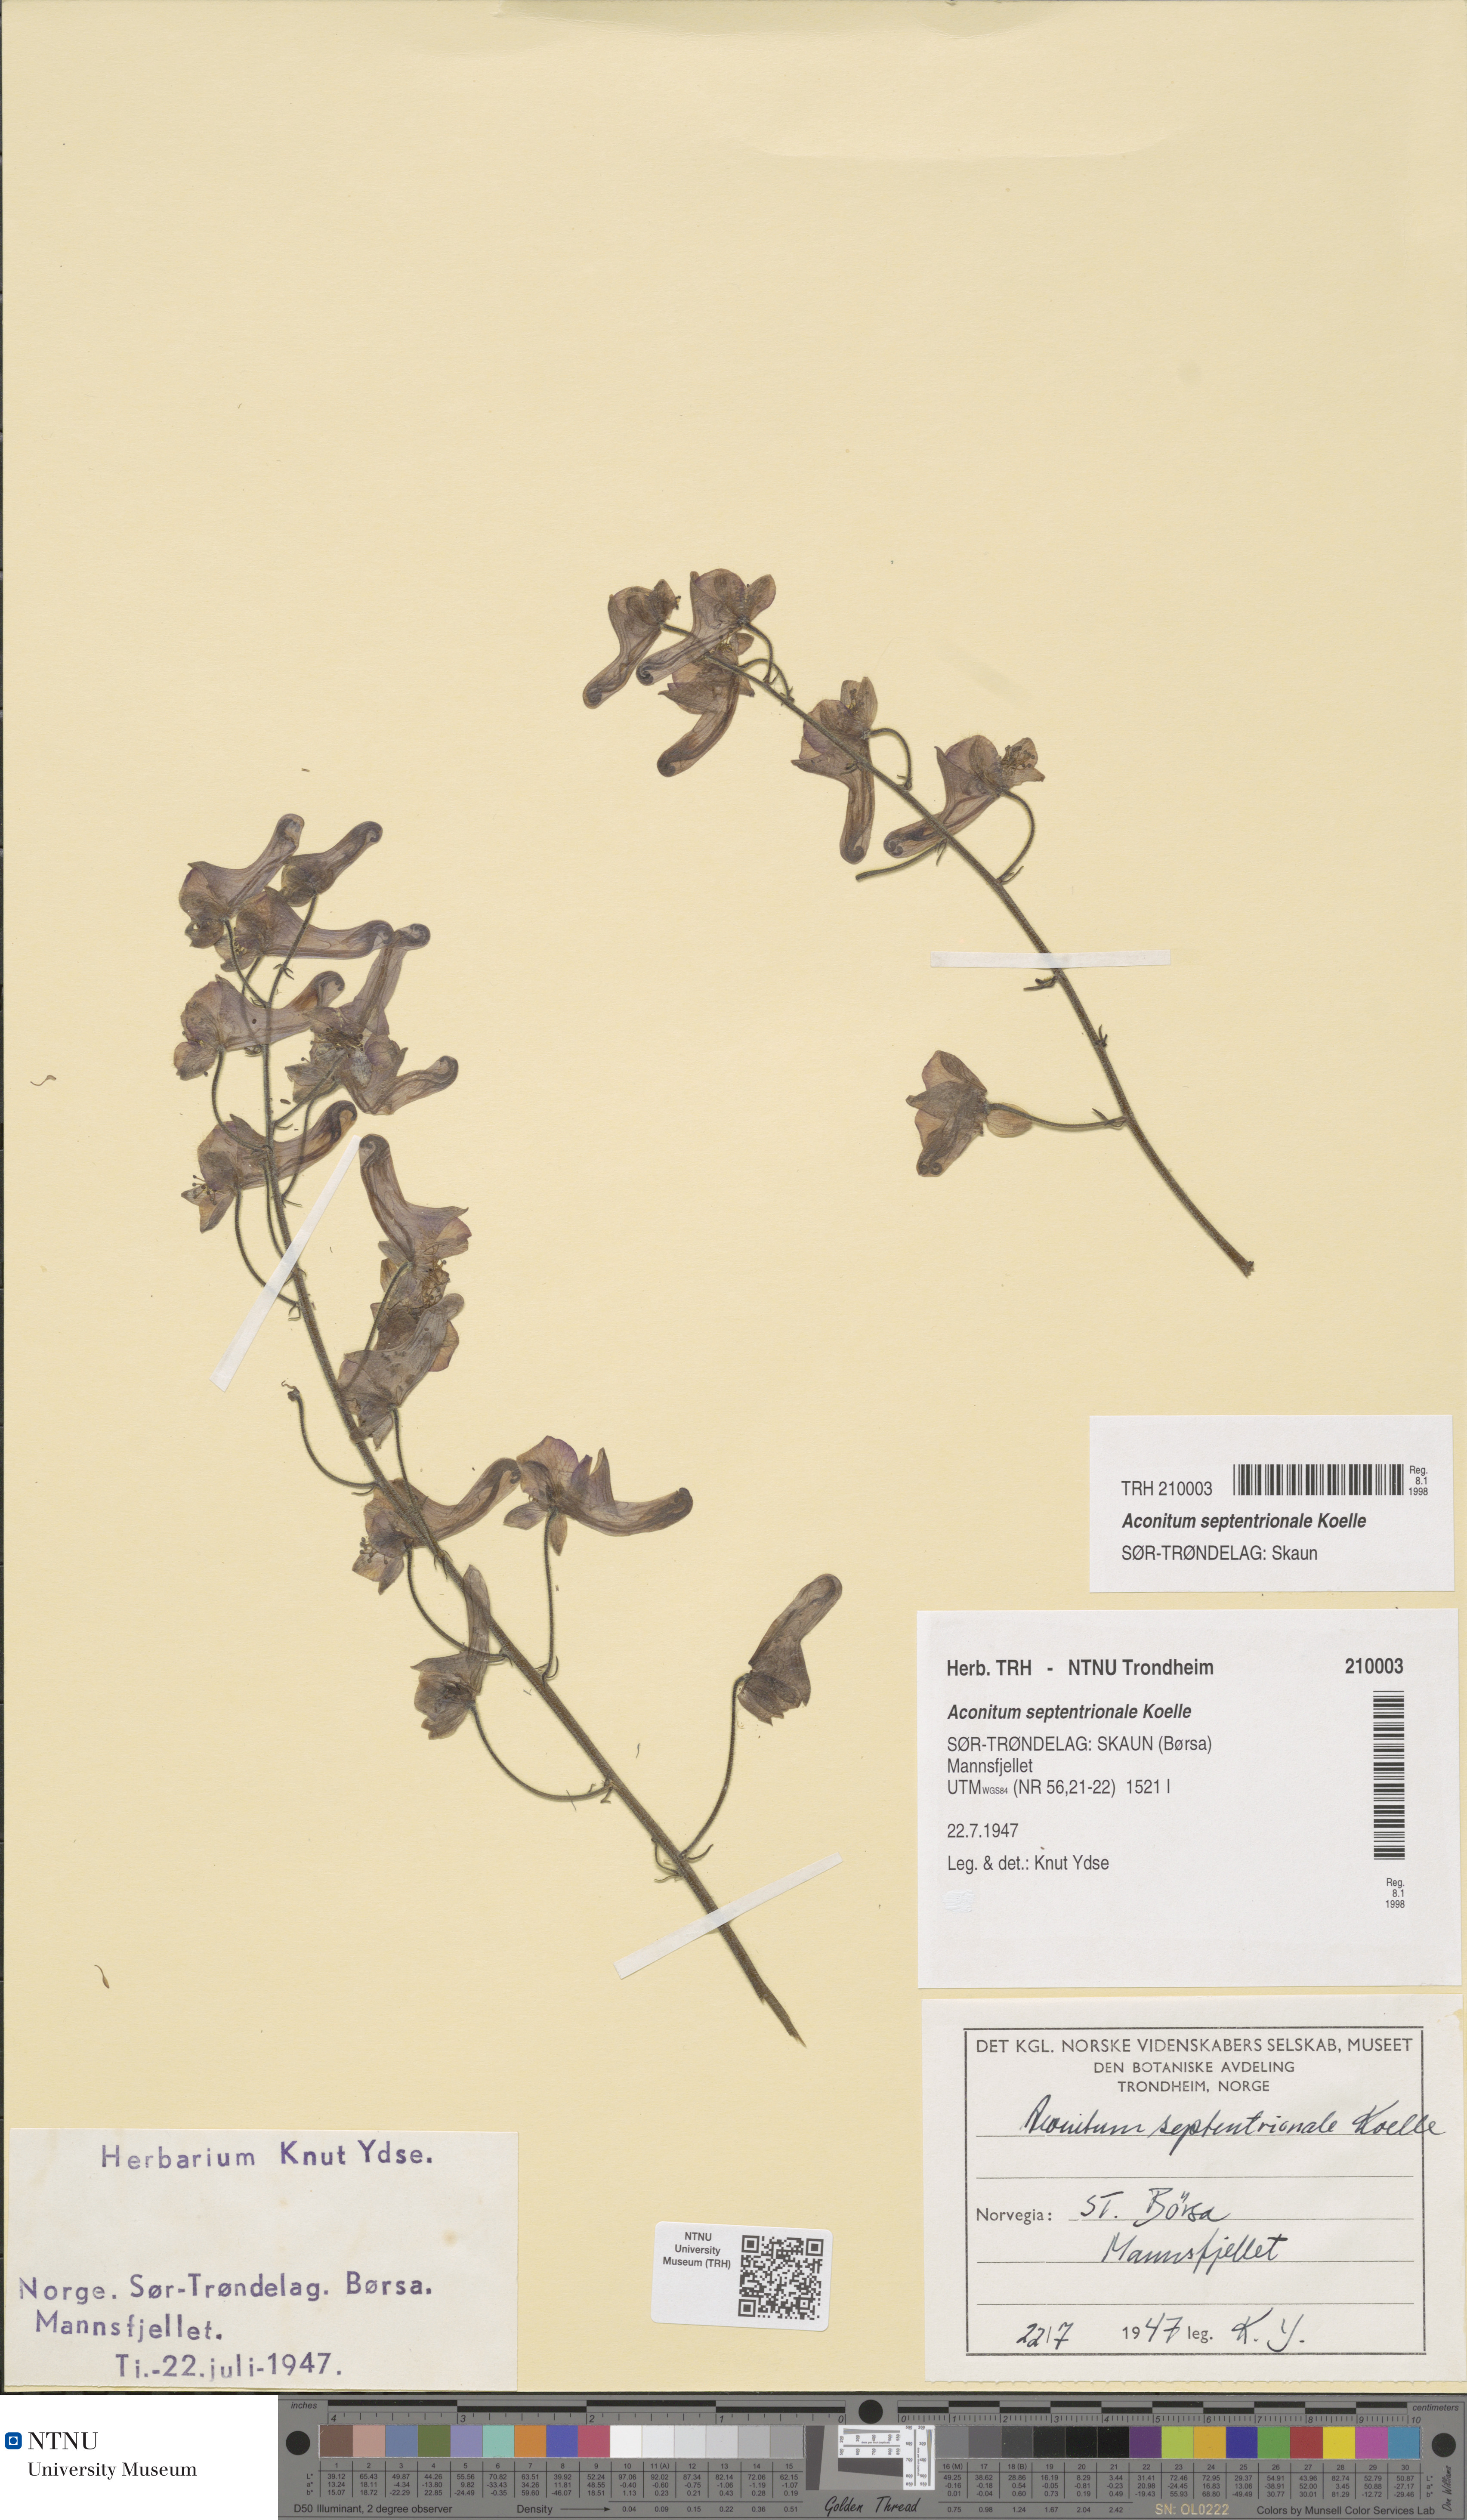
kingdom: Plantae
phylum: Tracheophyta
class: Magnoliopsida
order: Ranunculales
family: Ranunculaceae
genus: Aconitum
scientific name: Aconitum septentrionale
